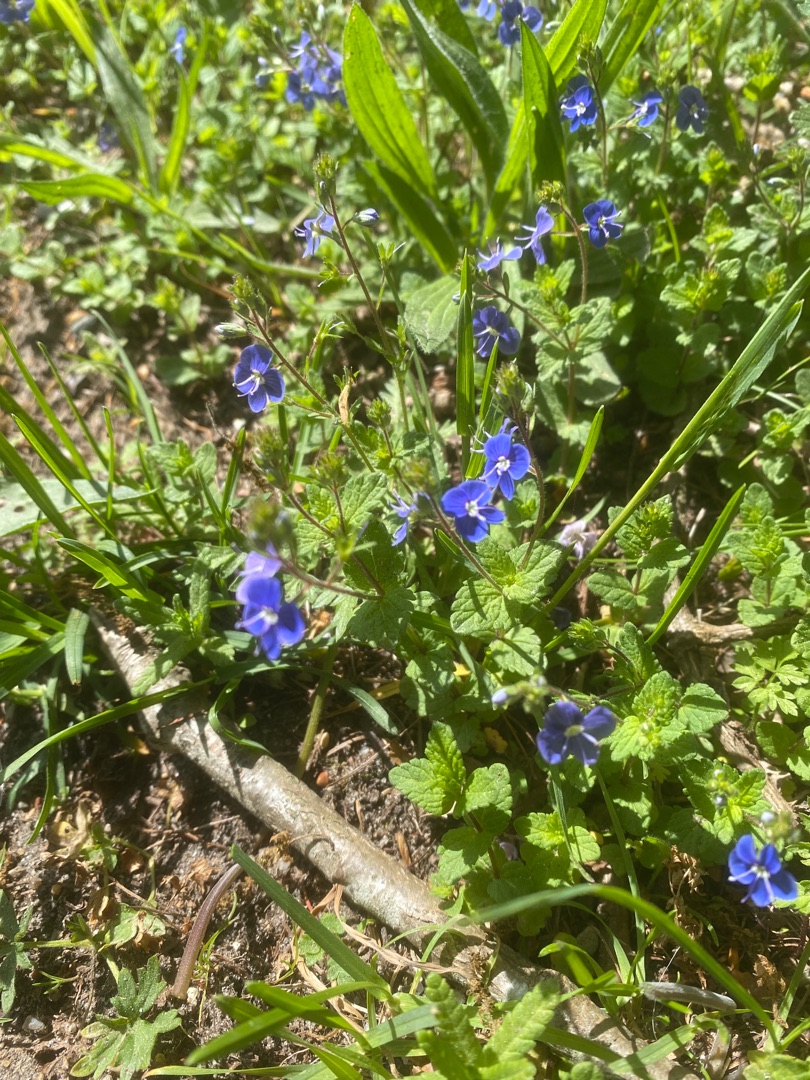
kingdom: Plantae
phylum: Tracheophyta
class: Magnoliopsida
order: Lamiales
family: Plantaginaceae
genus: Veronica
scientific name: Veronica chamaedrys
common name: Tveskægget ærenpris
